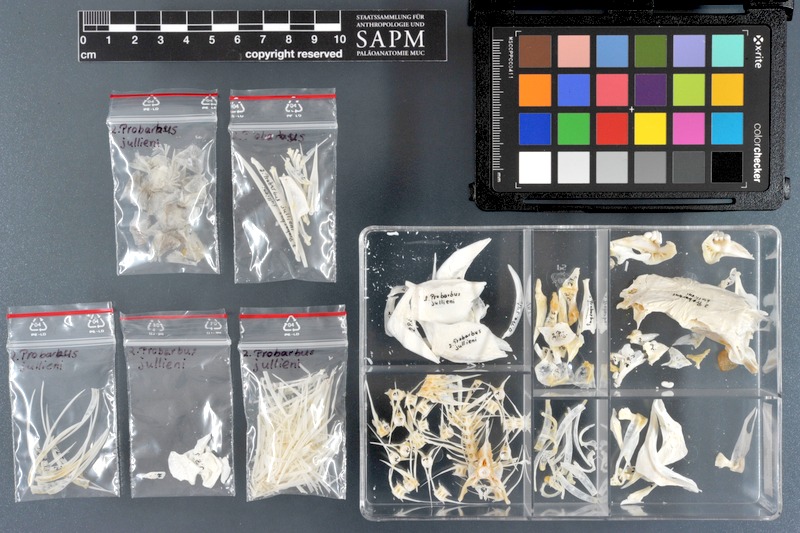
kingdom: Animalia
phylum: Chordata
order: Cypriniformes
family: Cyprinidae
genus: Probarbus
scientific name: Probarbus jullieni
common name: Jullien's golden carp
